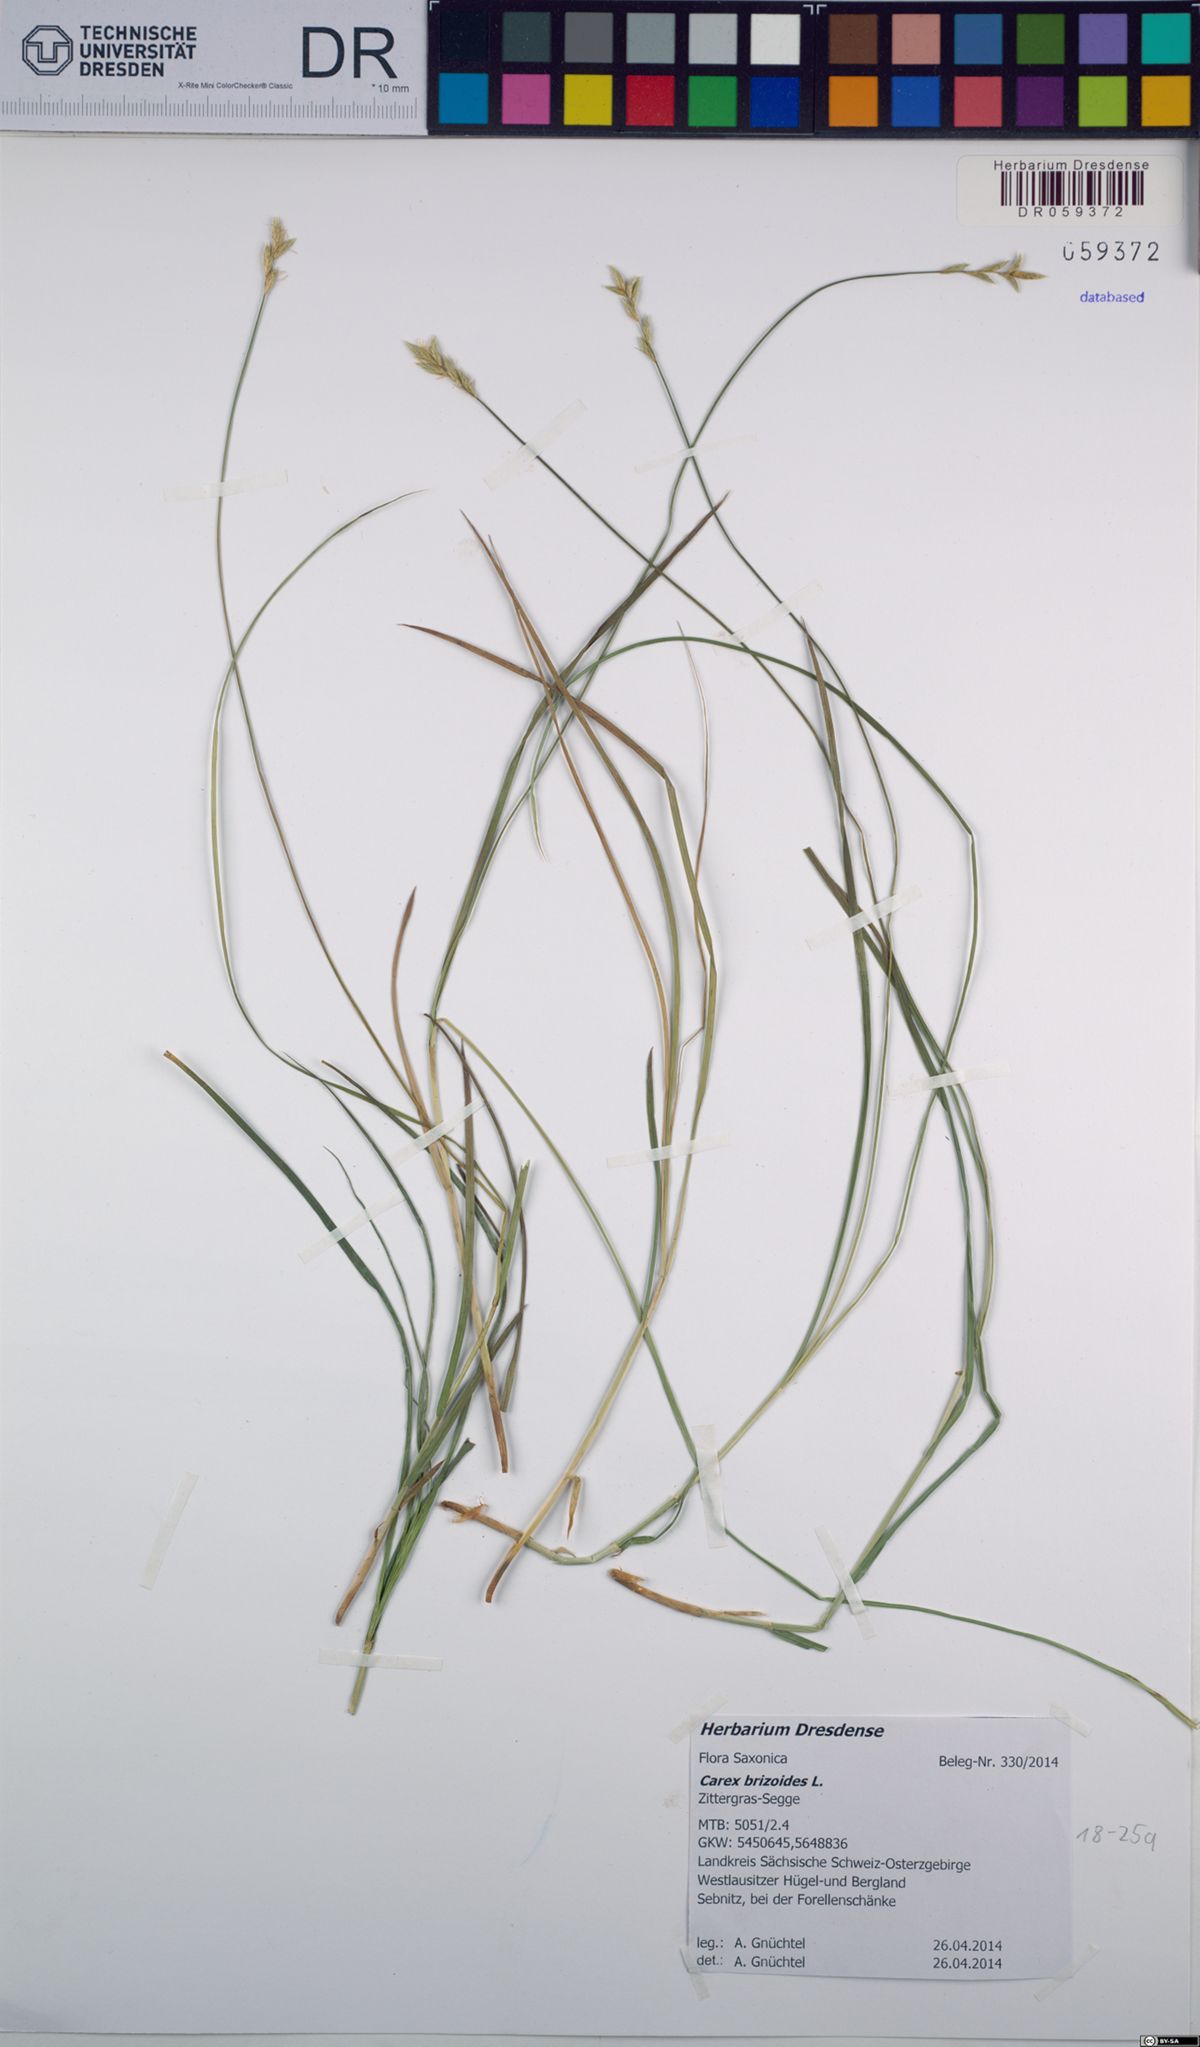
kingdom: Plantae
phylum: Tracheophyta
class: Liliopsida
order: Poales
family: Cyperaceae
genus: Carex
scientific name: Carex brizoides
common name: Quaking-grass sedge
